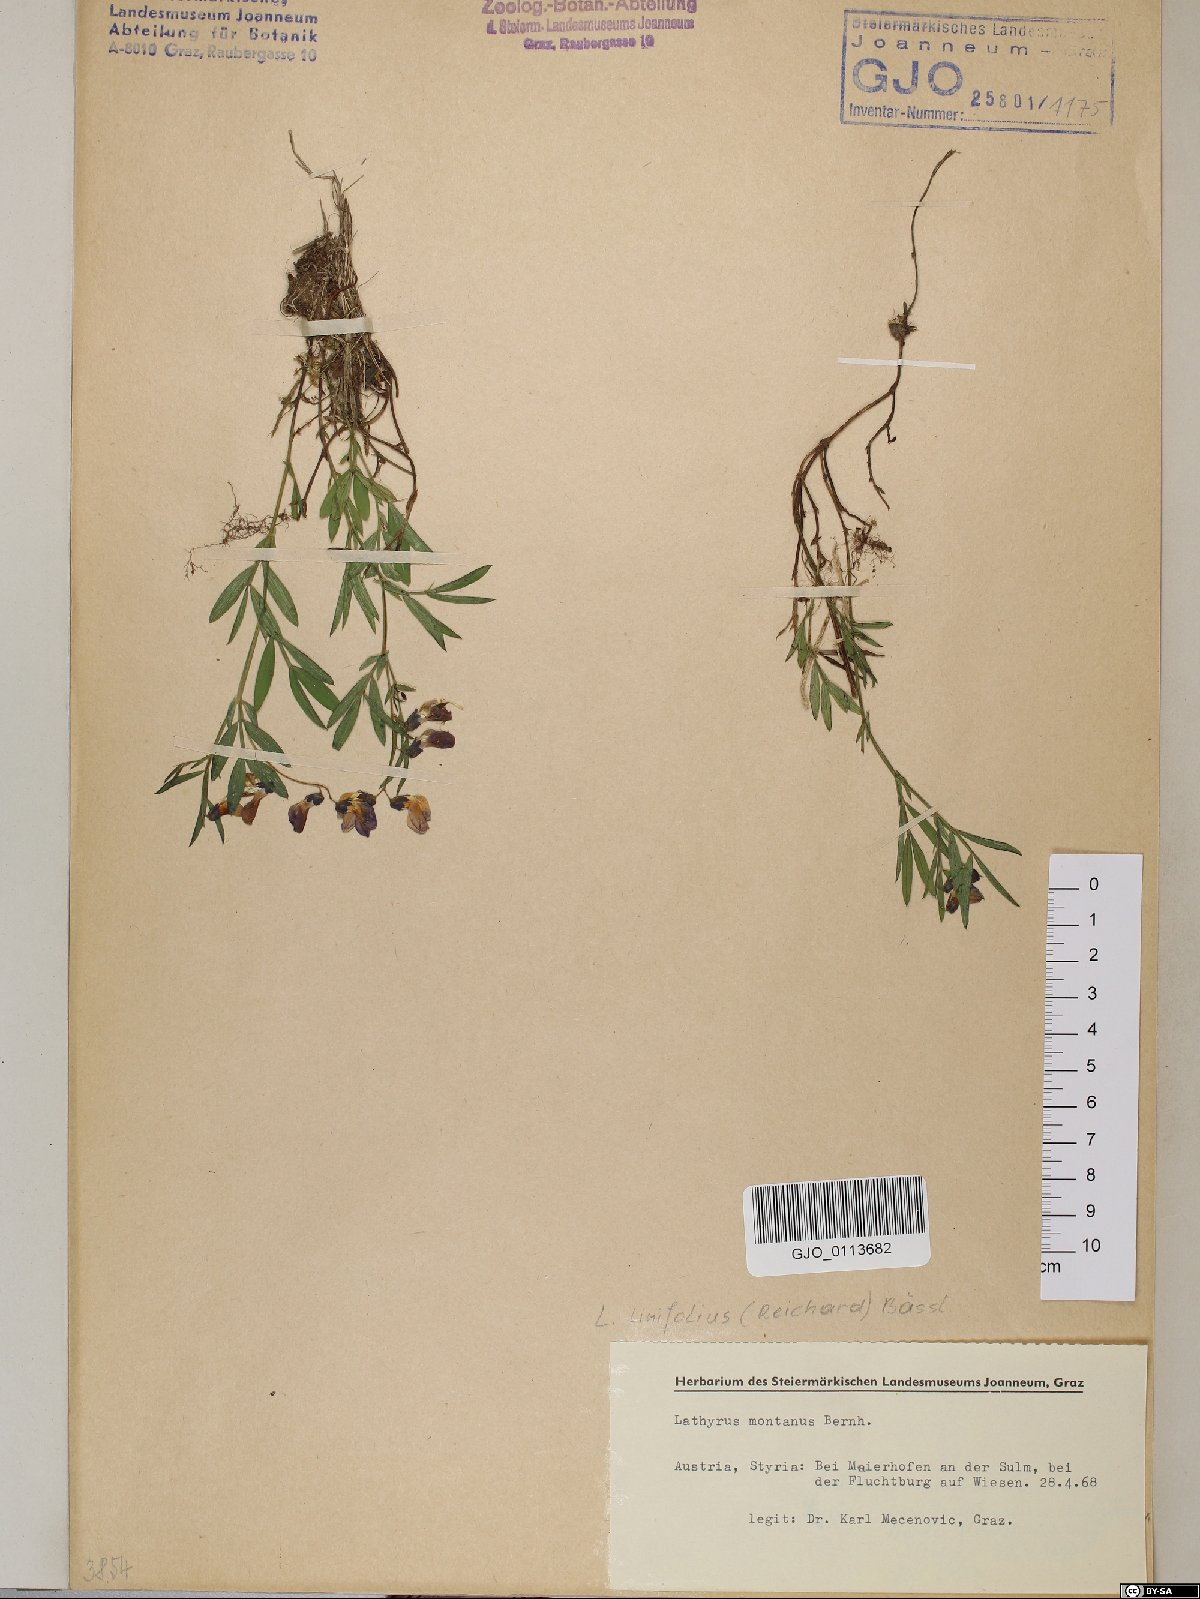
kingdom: Plantae
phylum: Tracheophyta
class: Magnoliopsida
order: Fabales
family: Fabaceae
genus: Lathyrus
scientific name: Lathyrus linifolius
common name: Bitter-vetch
